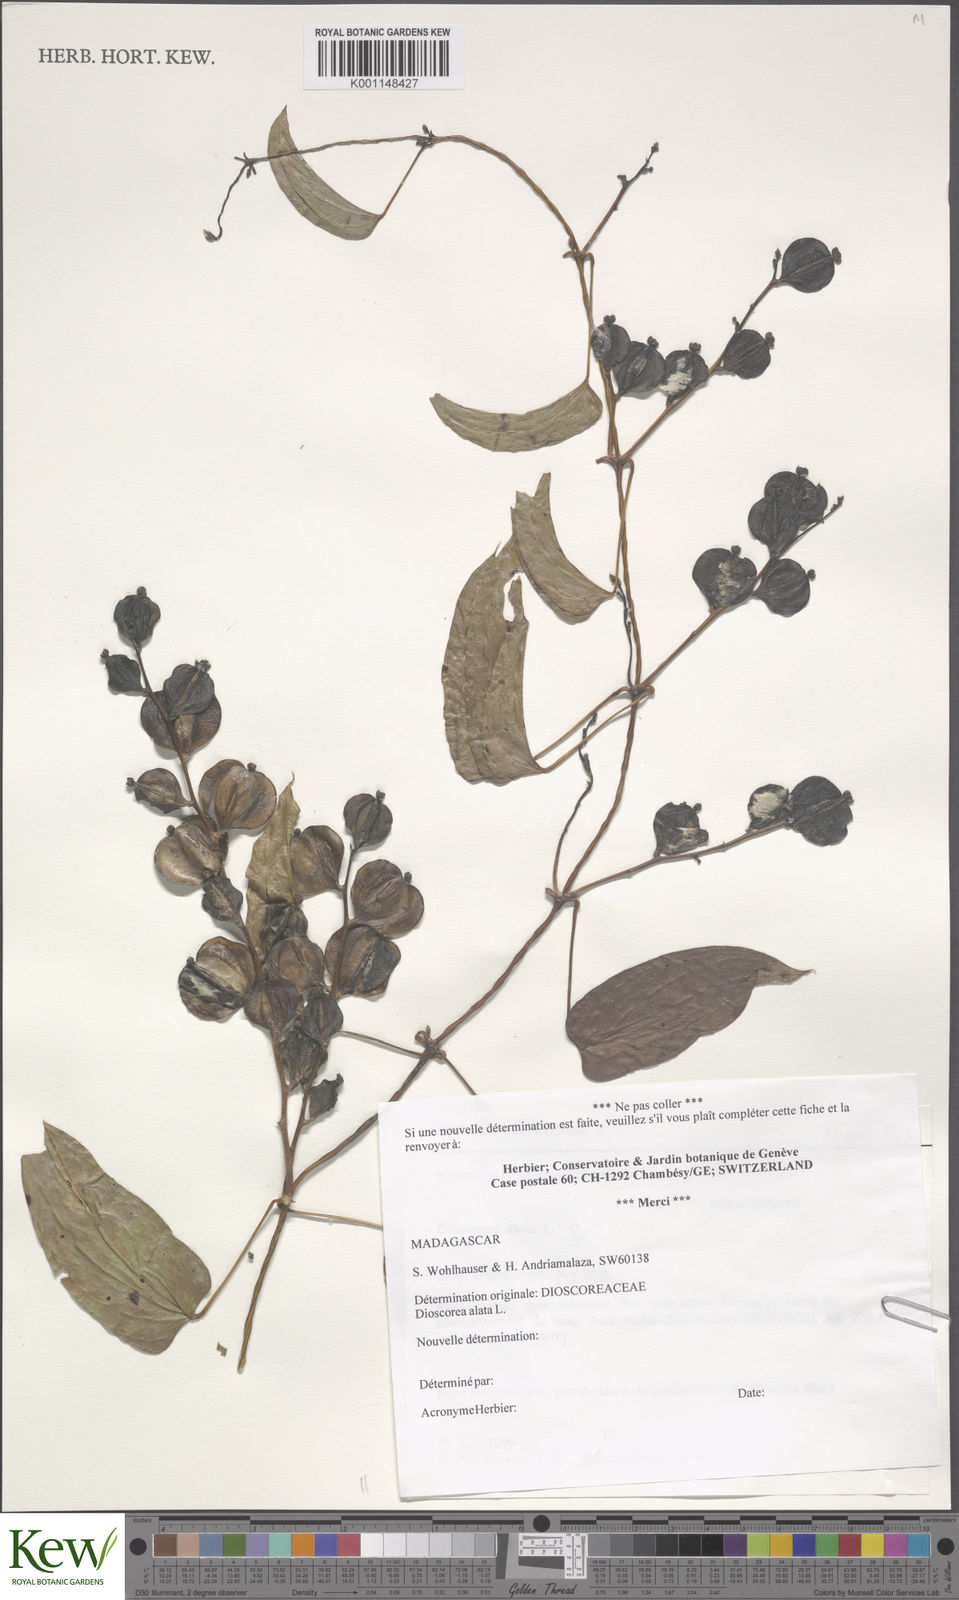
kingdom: Plantae
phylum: Tracheophyta
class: Liliopsida
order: Dioscoreales
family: Dioscoreaceae
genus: Dioscorea
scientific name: Dioscorea alata
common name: Water yam
